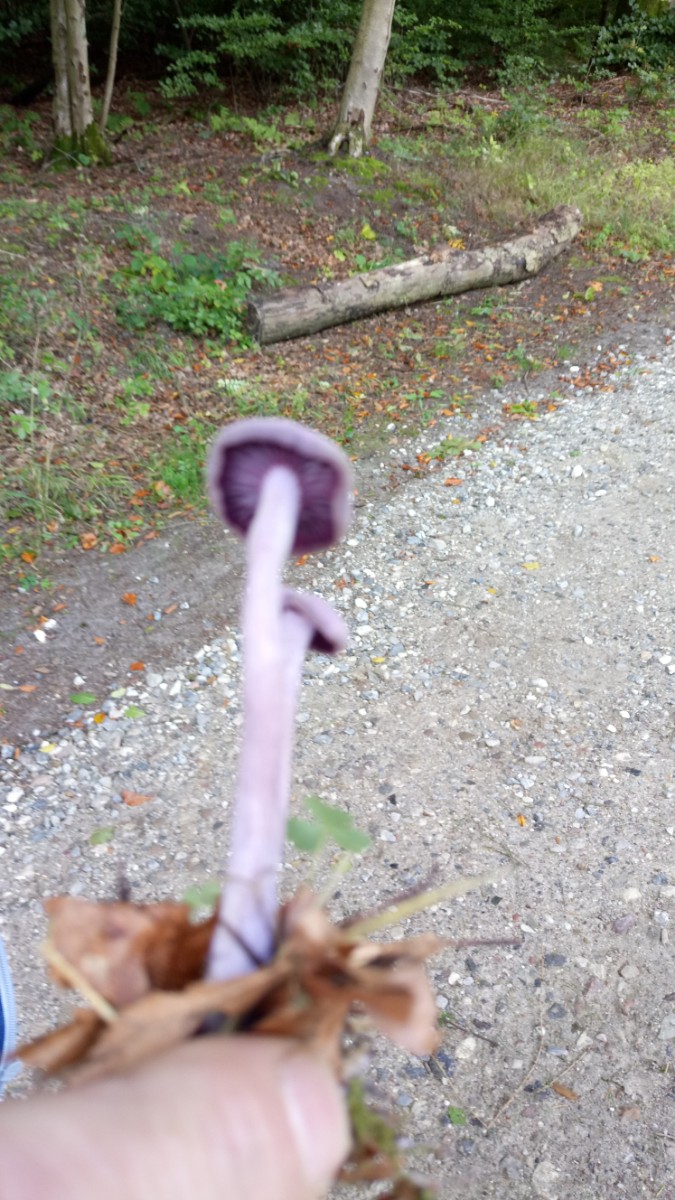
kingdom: Fungi
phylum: Basidiomycota
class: Agaricomycetes
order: Agaricales
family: Hydnangiaceae
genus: Laccaria
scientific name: Laccaria amethystina
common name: violet ametysthat
